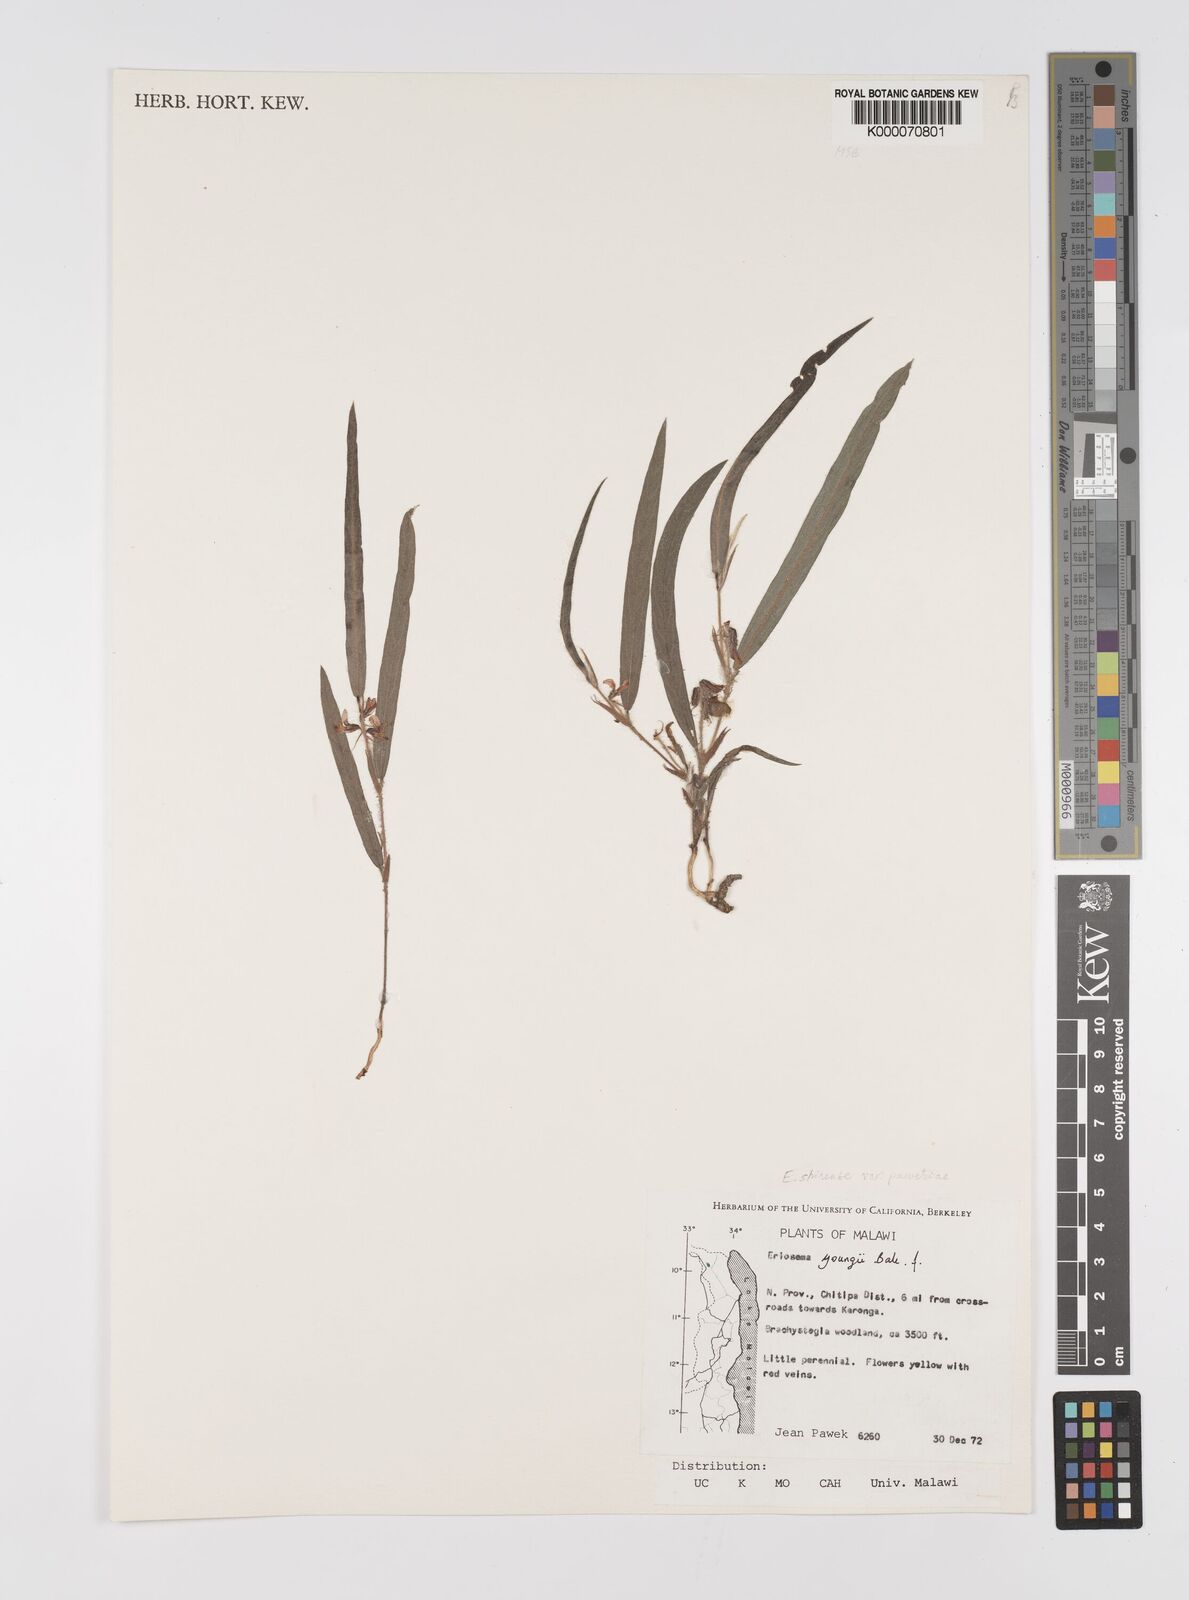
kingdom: Plantae
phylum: Tracheophyta
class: Magnoliopsida
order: Fabales
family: Fabaceae
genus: Eriosema
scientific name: Eriosema shirense
